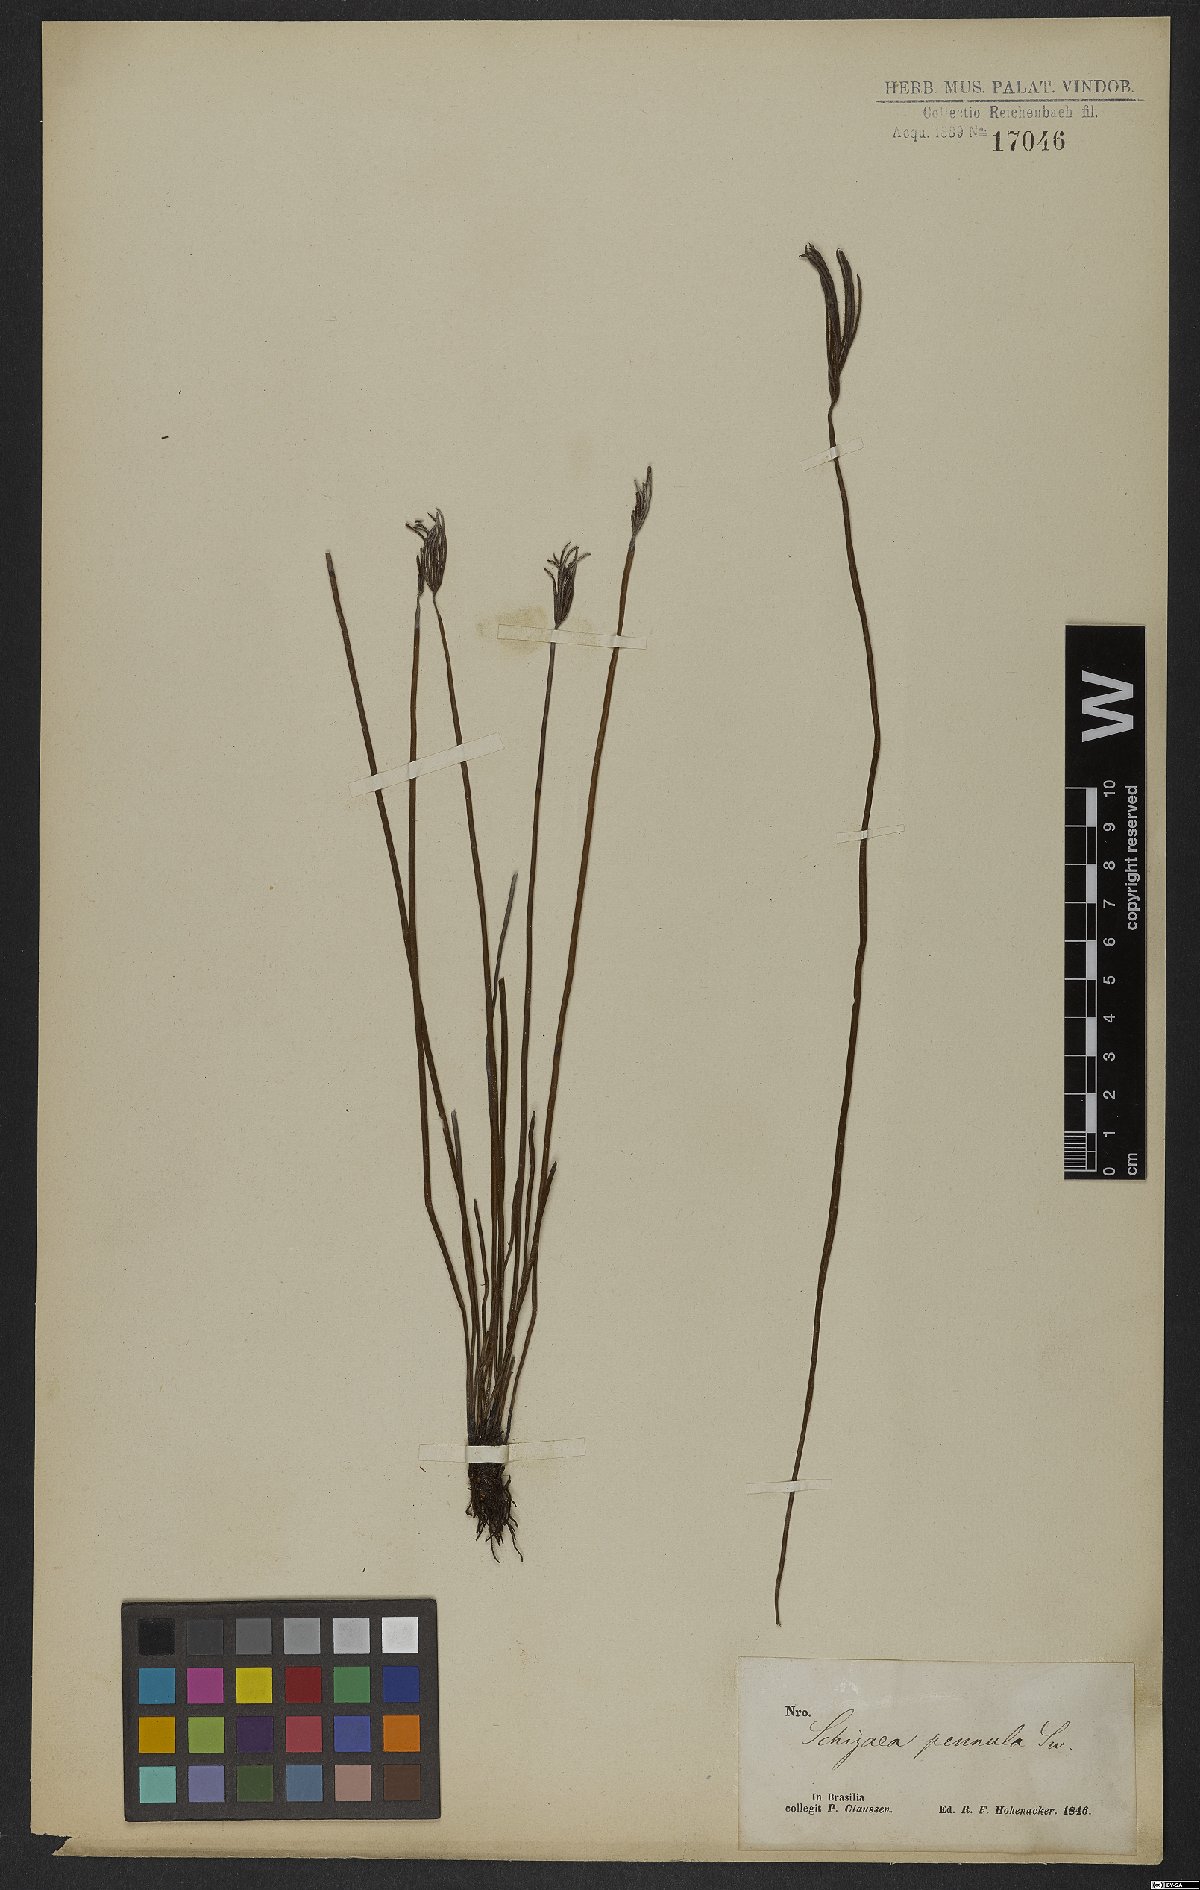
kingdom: Plantae
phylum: Tracheophyta
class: Polypodiopsida
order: Schizaeales
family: Schizaeaceae
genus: Actinostachys
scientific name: Actinostachys pennula
